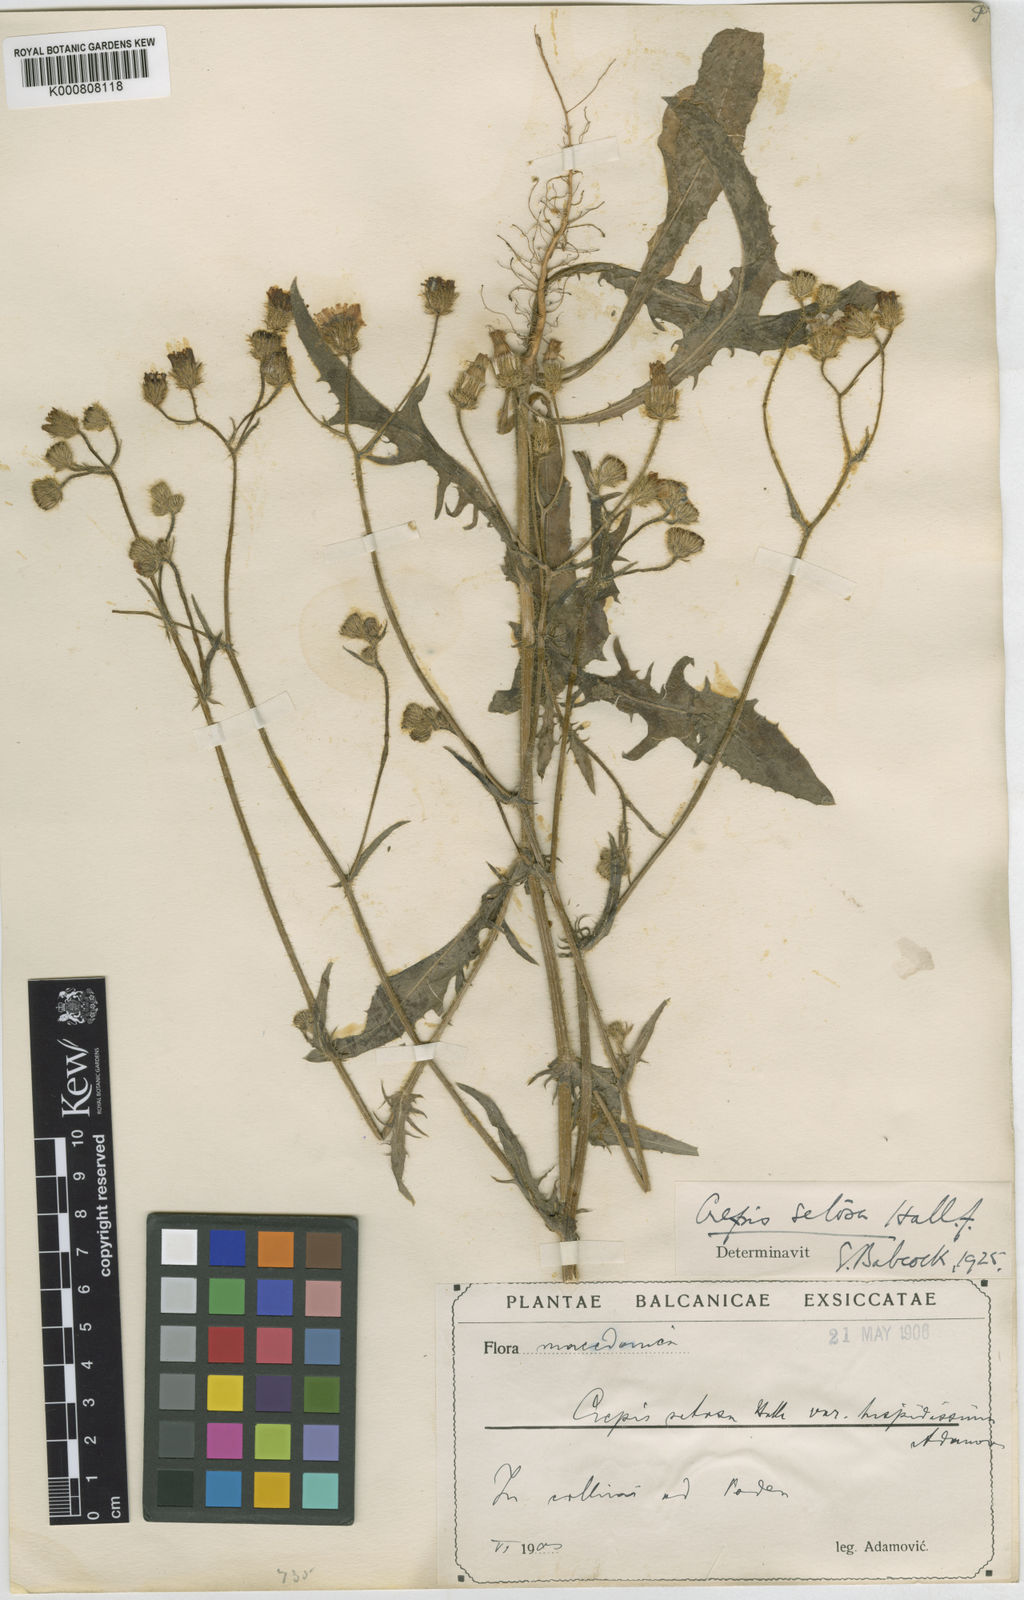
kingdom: Plantae
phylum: Tracheophyta
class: Magnoliopsida
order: Asterales
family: Asteraceae
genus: Crepis
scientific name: Crepis setosa
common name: Bristly hawk's-beard
